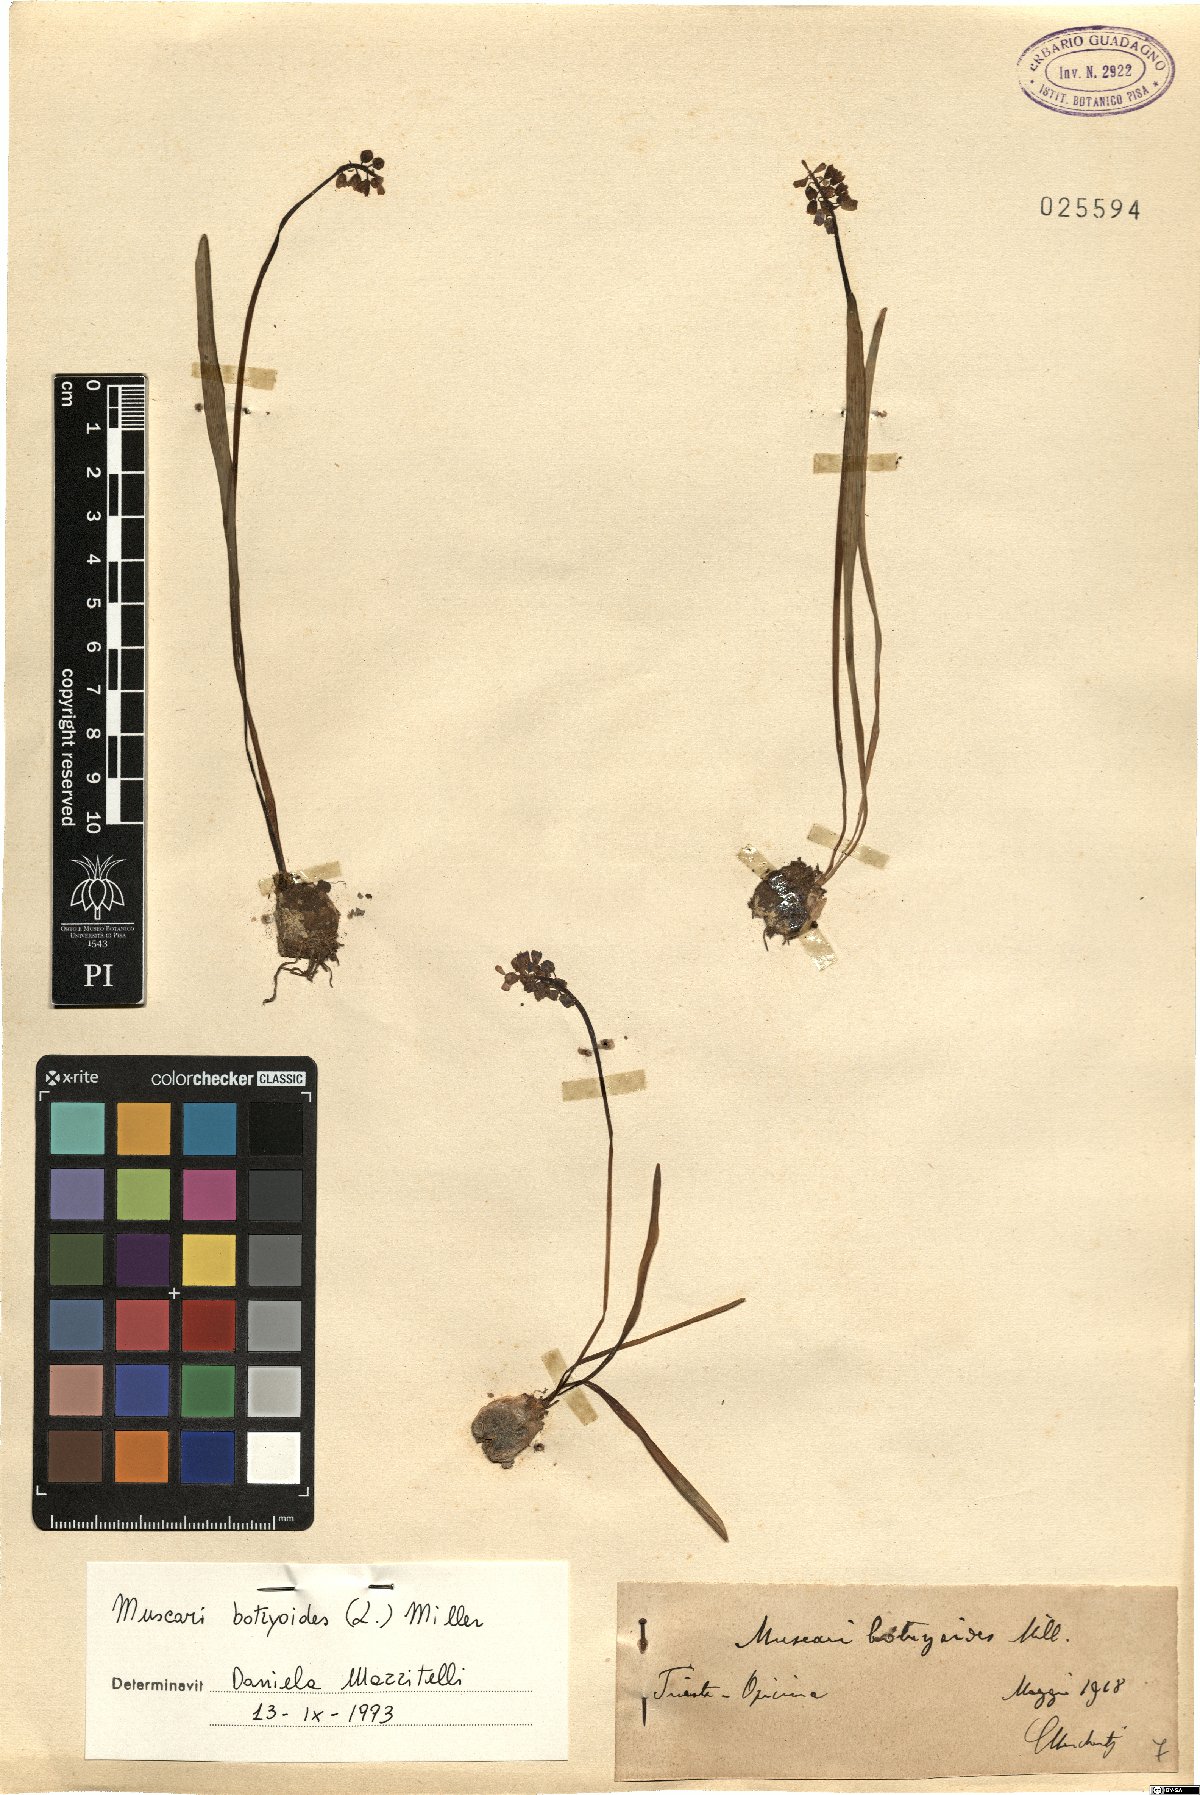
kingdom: Plantae
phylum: Tracheophyta
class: Liliopsida
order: Asparagales
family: Asparagaceae
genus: Muscari
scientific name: Muscari botryoides
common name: Compact grape-hyacinth
